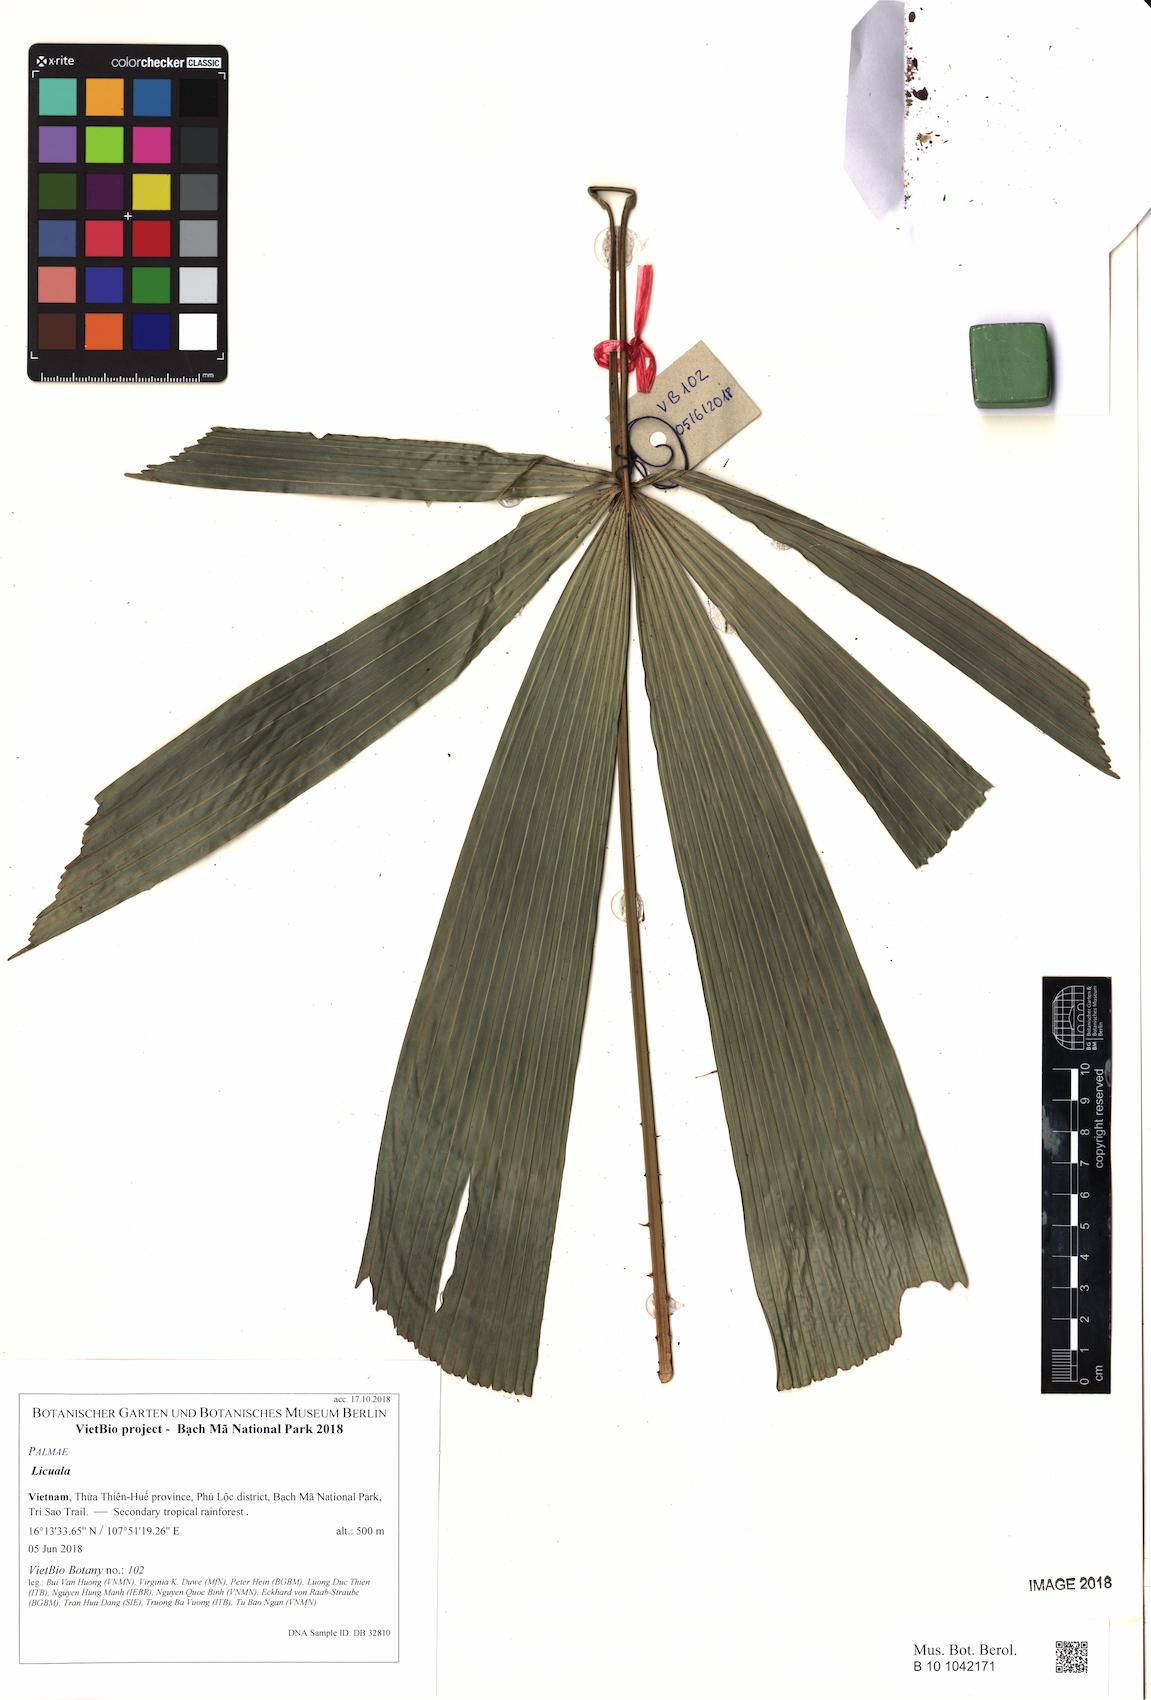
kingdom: Plantae
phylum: Tracheophyta
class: Liliopsida
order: Arecales
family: Arecaceae
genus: Licuala
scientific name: Licuala
